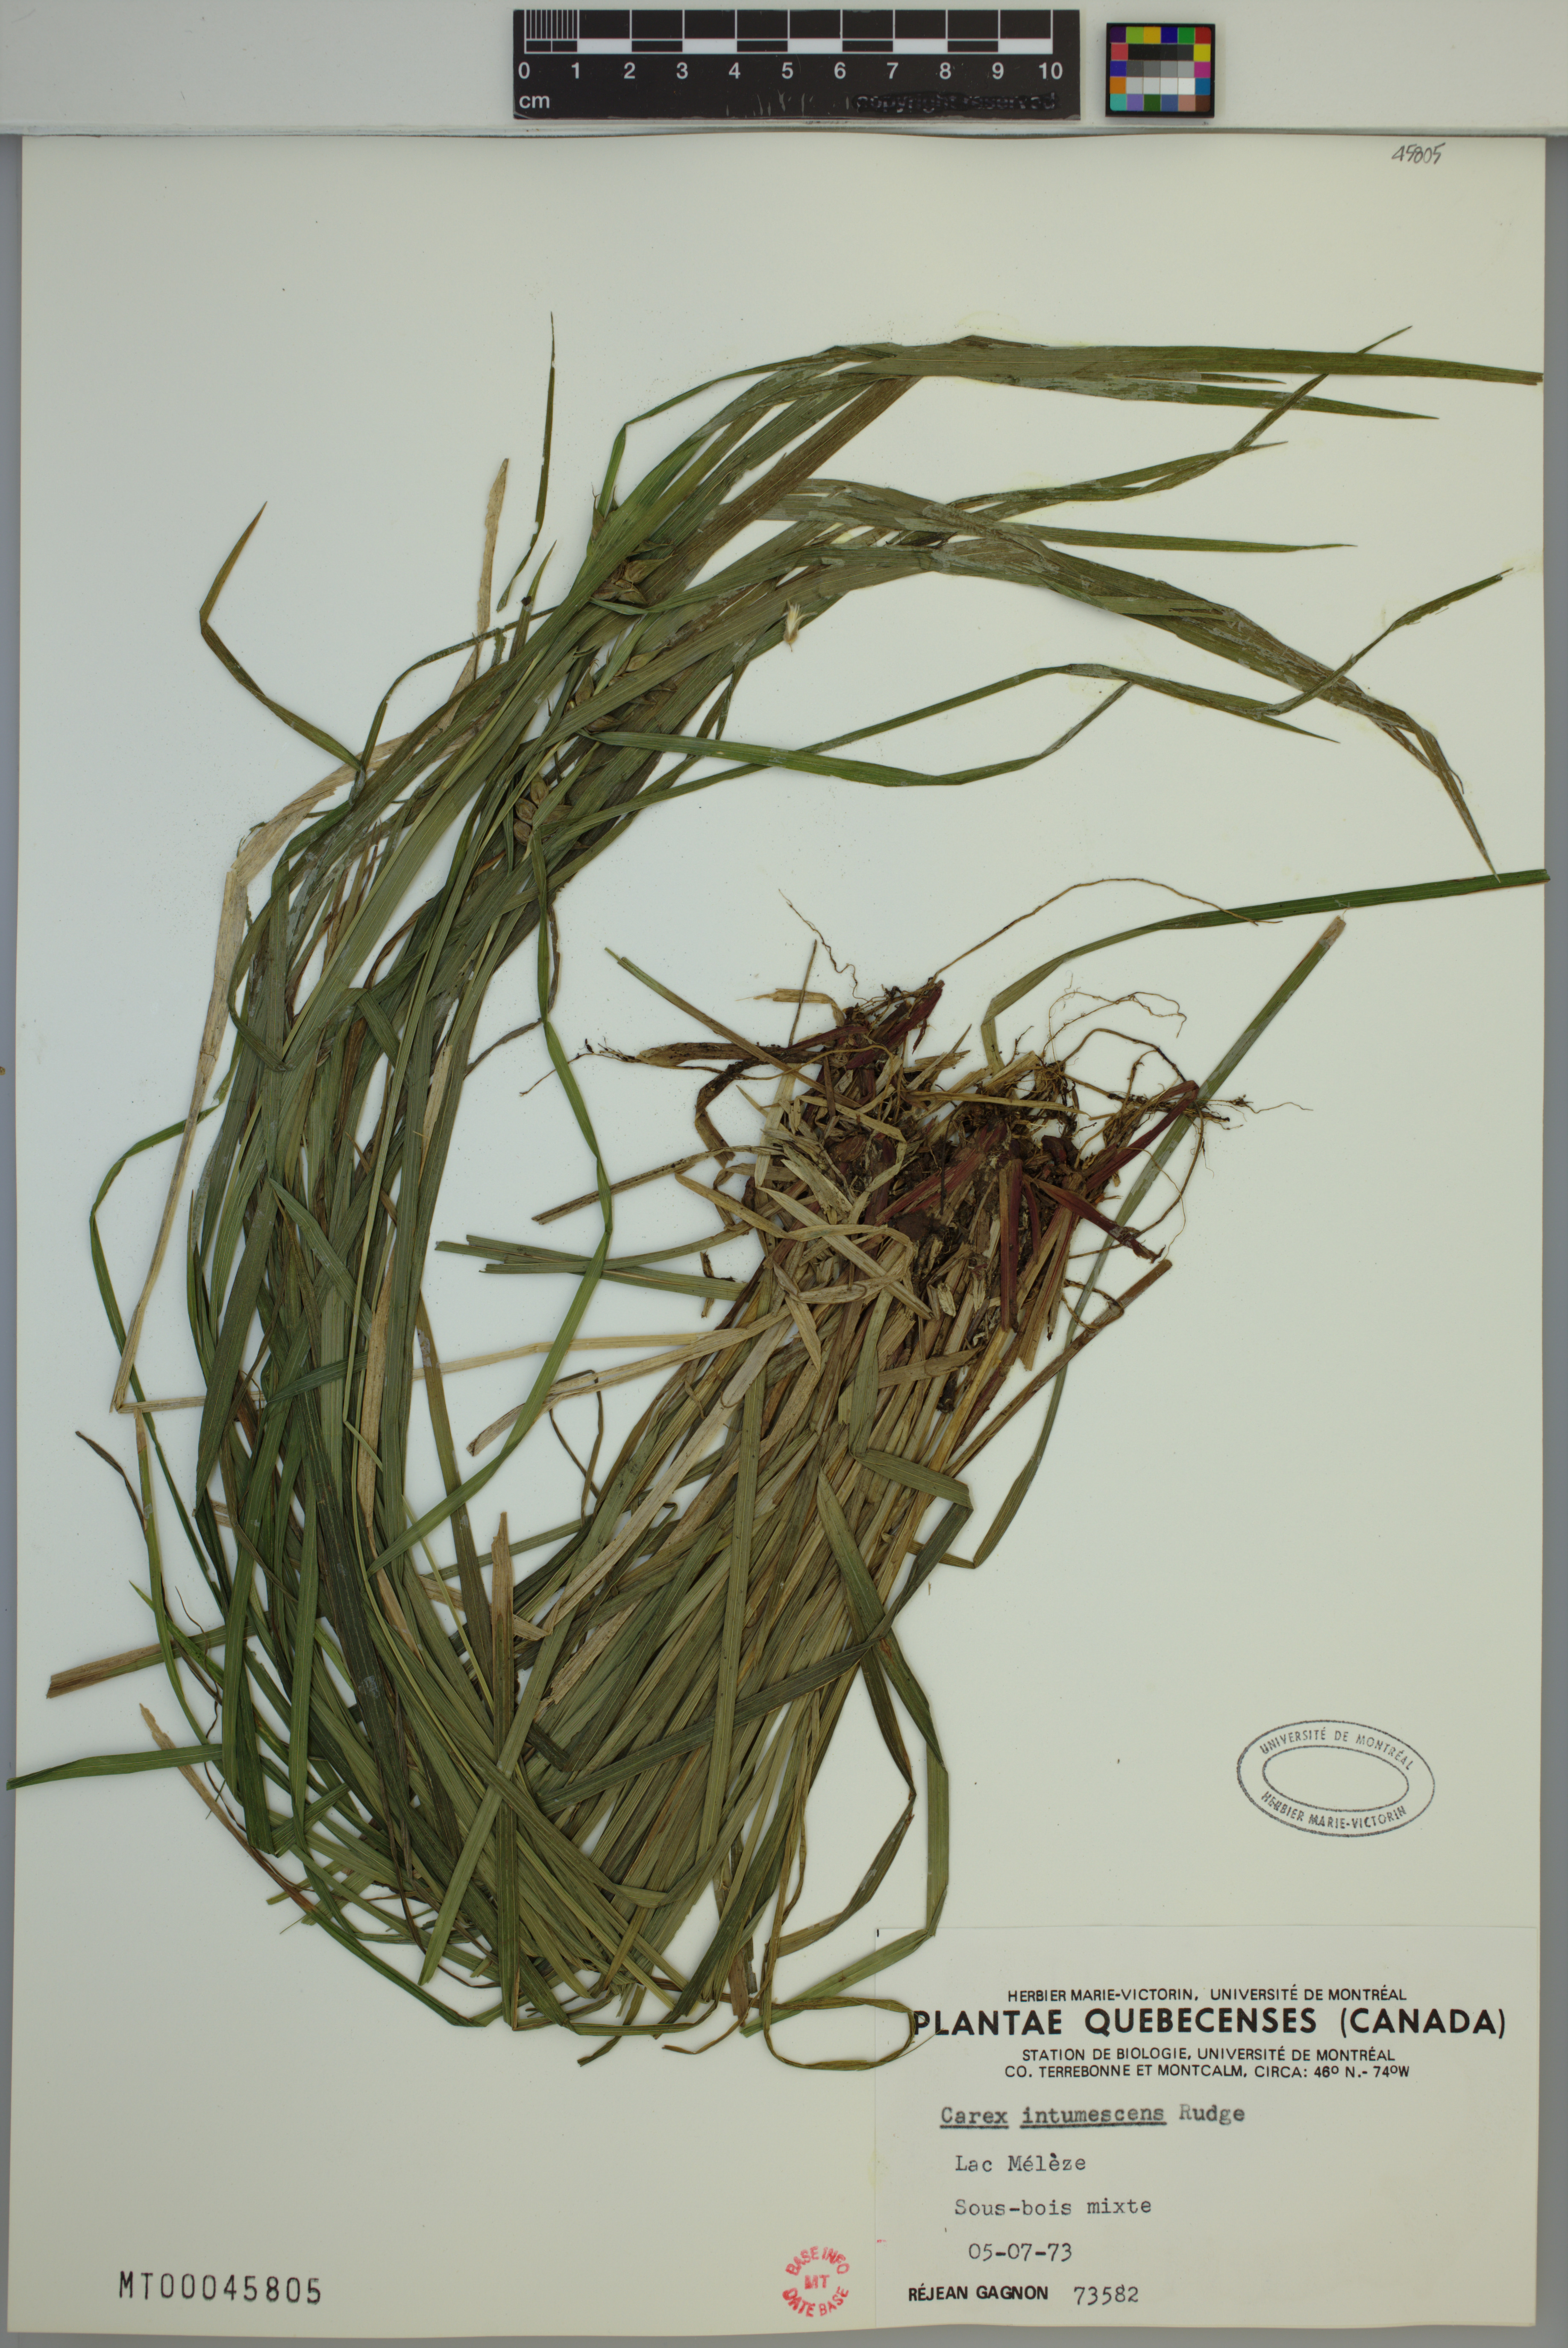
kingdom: Plantae
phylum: Tracheophyta
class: Liliopsida
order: Poales
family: Cyperaceae
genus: Carex
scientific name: Carex intumescens
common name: Greater bladder sedge
